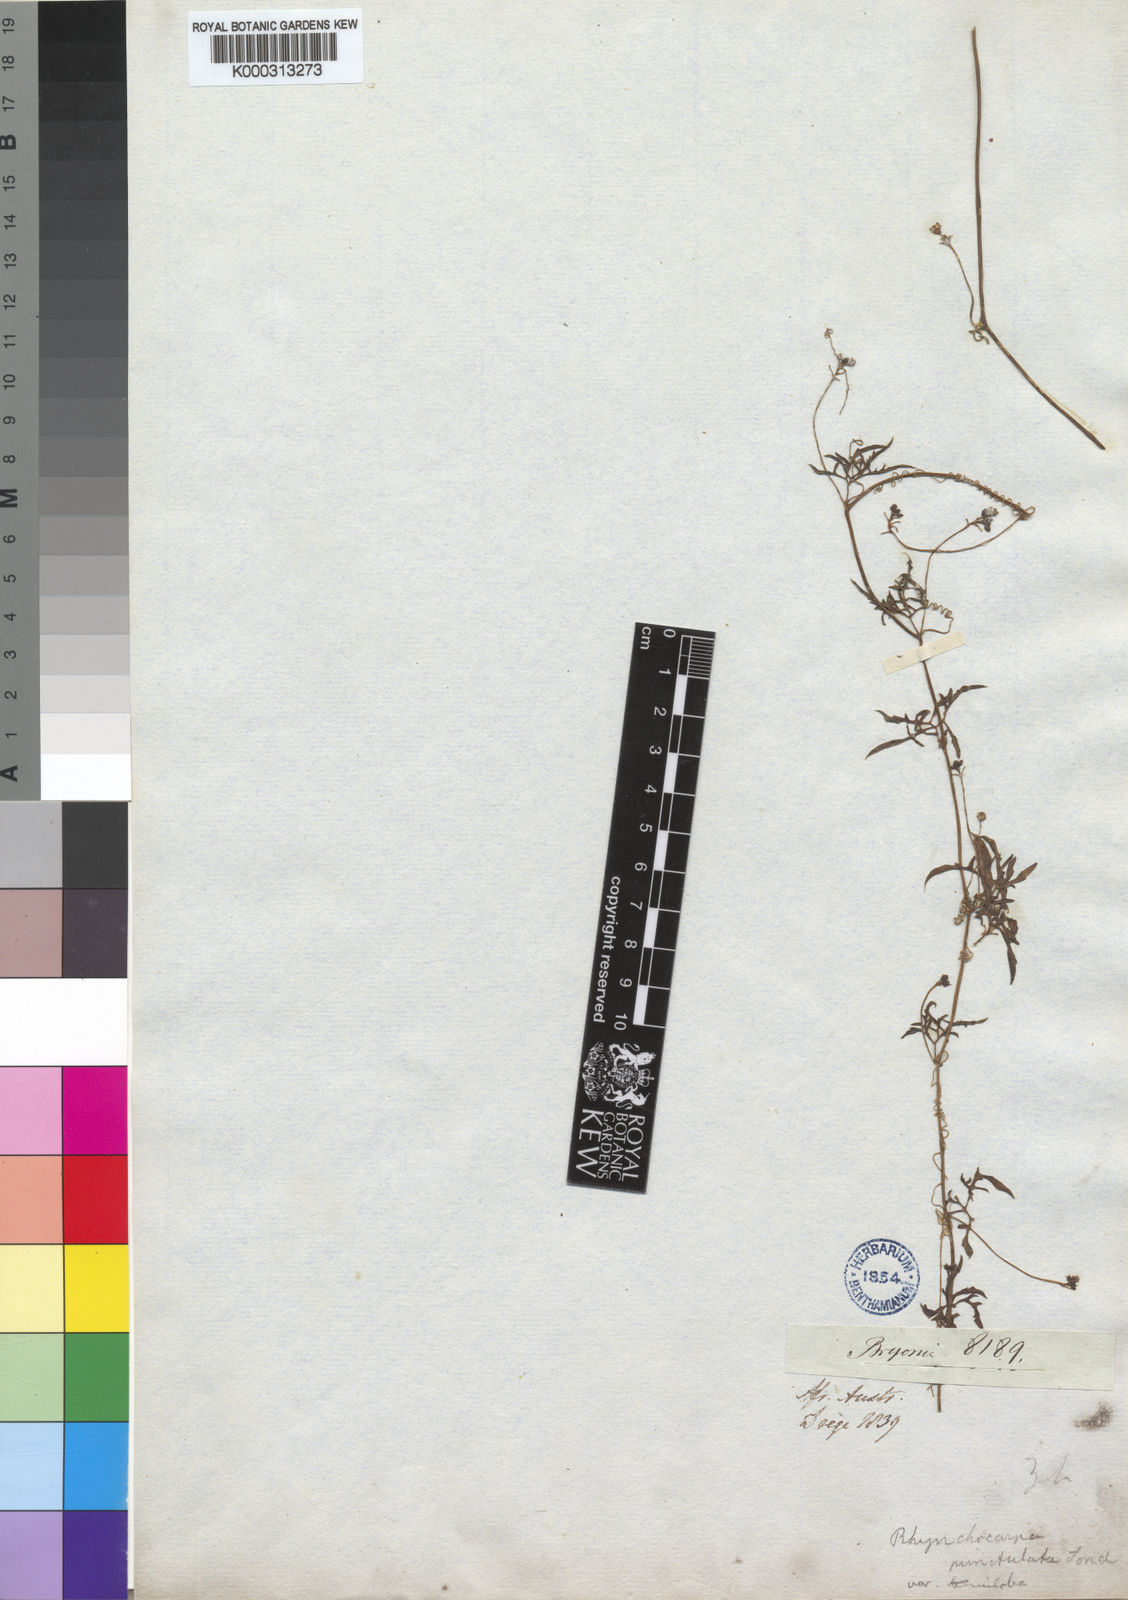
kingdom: Plantae
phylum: Tracheophyta
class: Magnoliopsida
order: Cucurbitales
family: Cucurbitaceae
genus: Kedrostis
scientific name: Kedrostis africana
